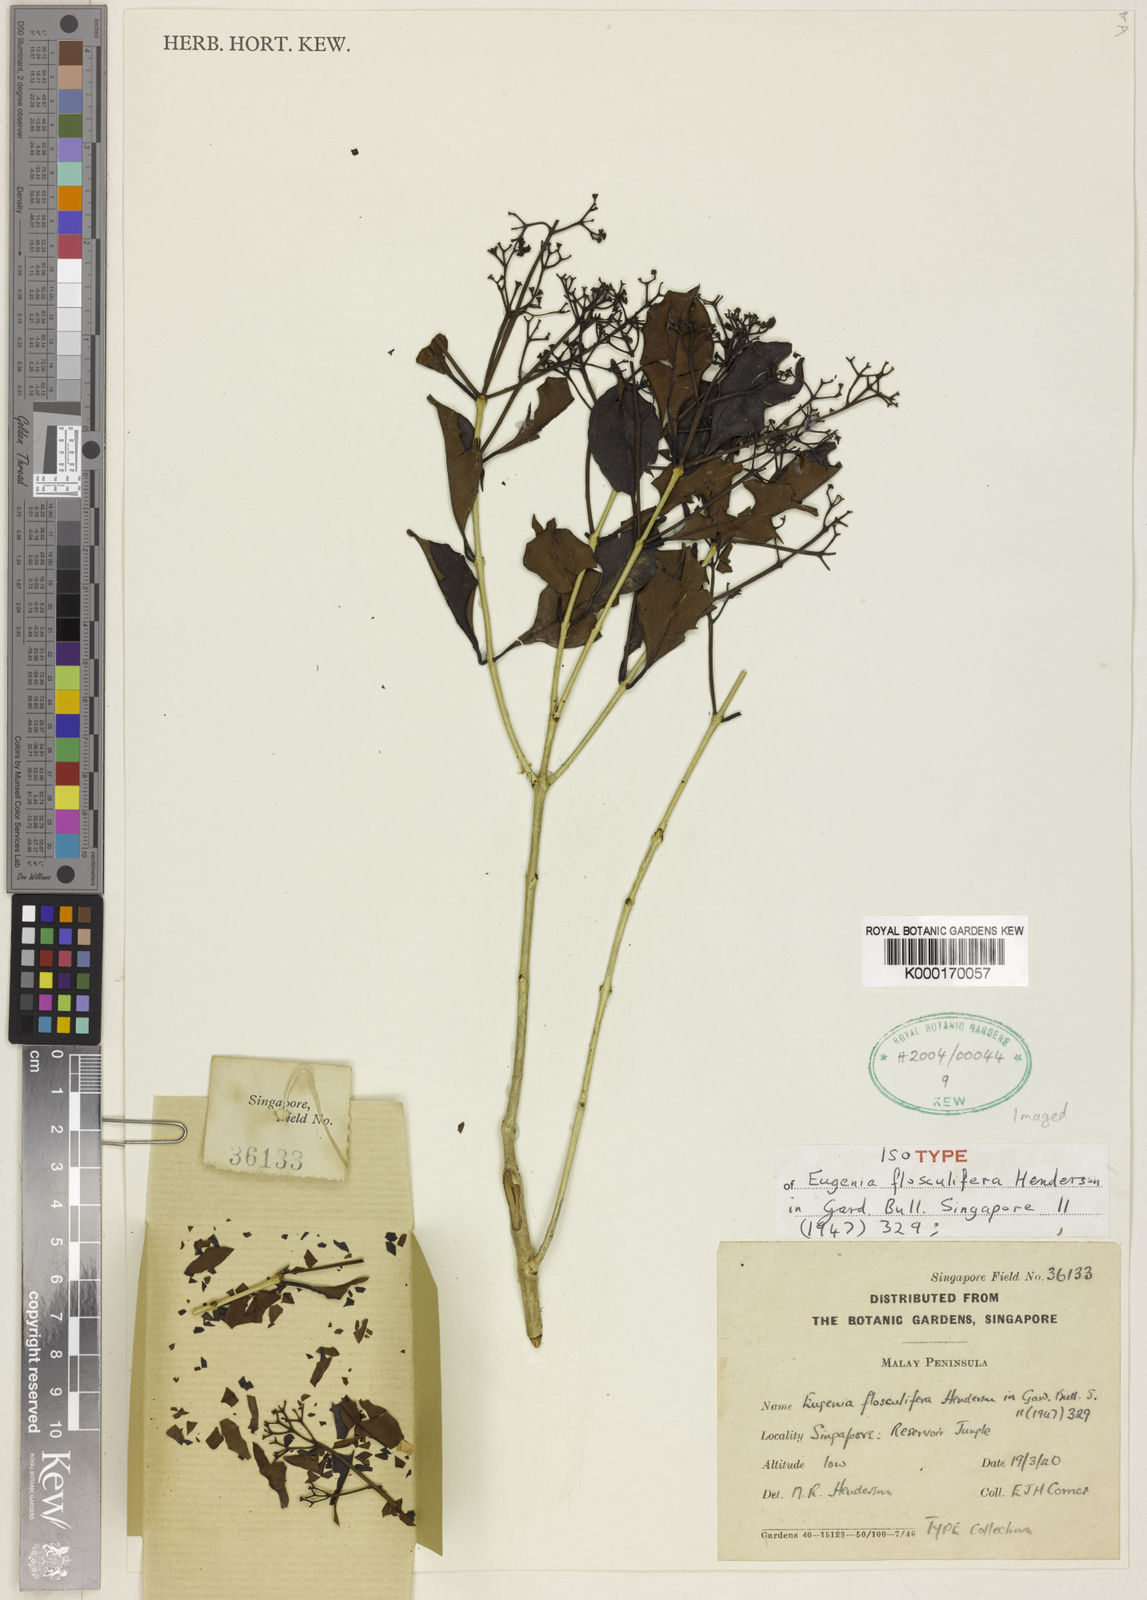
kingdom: Plantae
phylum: Tracheophyta
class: Magnoliopsida
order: Myrtales
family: Myrtaceae
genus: Syzygium
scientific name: Syzygium flosculiferum
